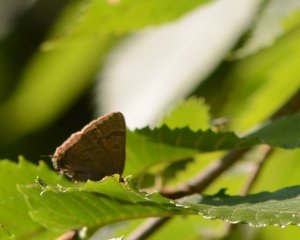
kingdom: Animalia
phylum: Arthropoda
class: Insecta
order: Lepidoptera
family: Lycaenidae
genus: Strymon
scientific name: Strymon caryaevorus
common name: Hickory Hairstreak
